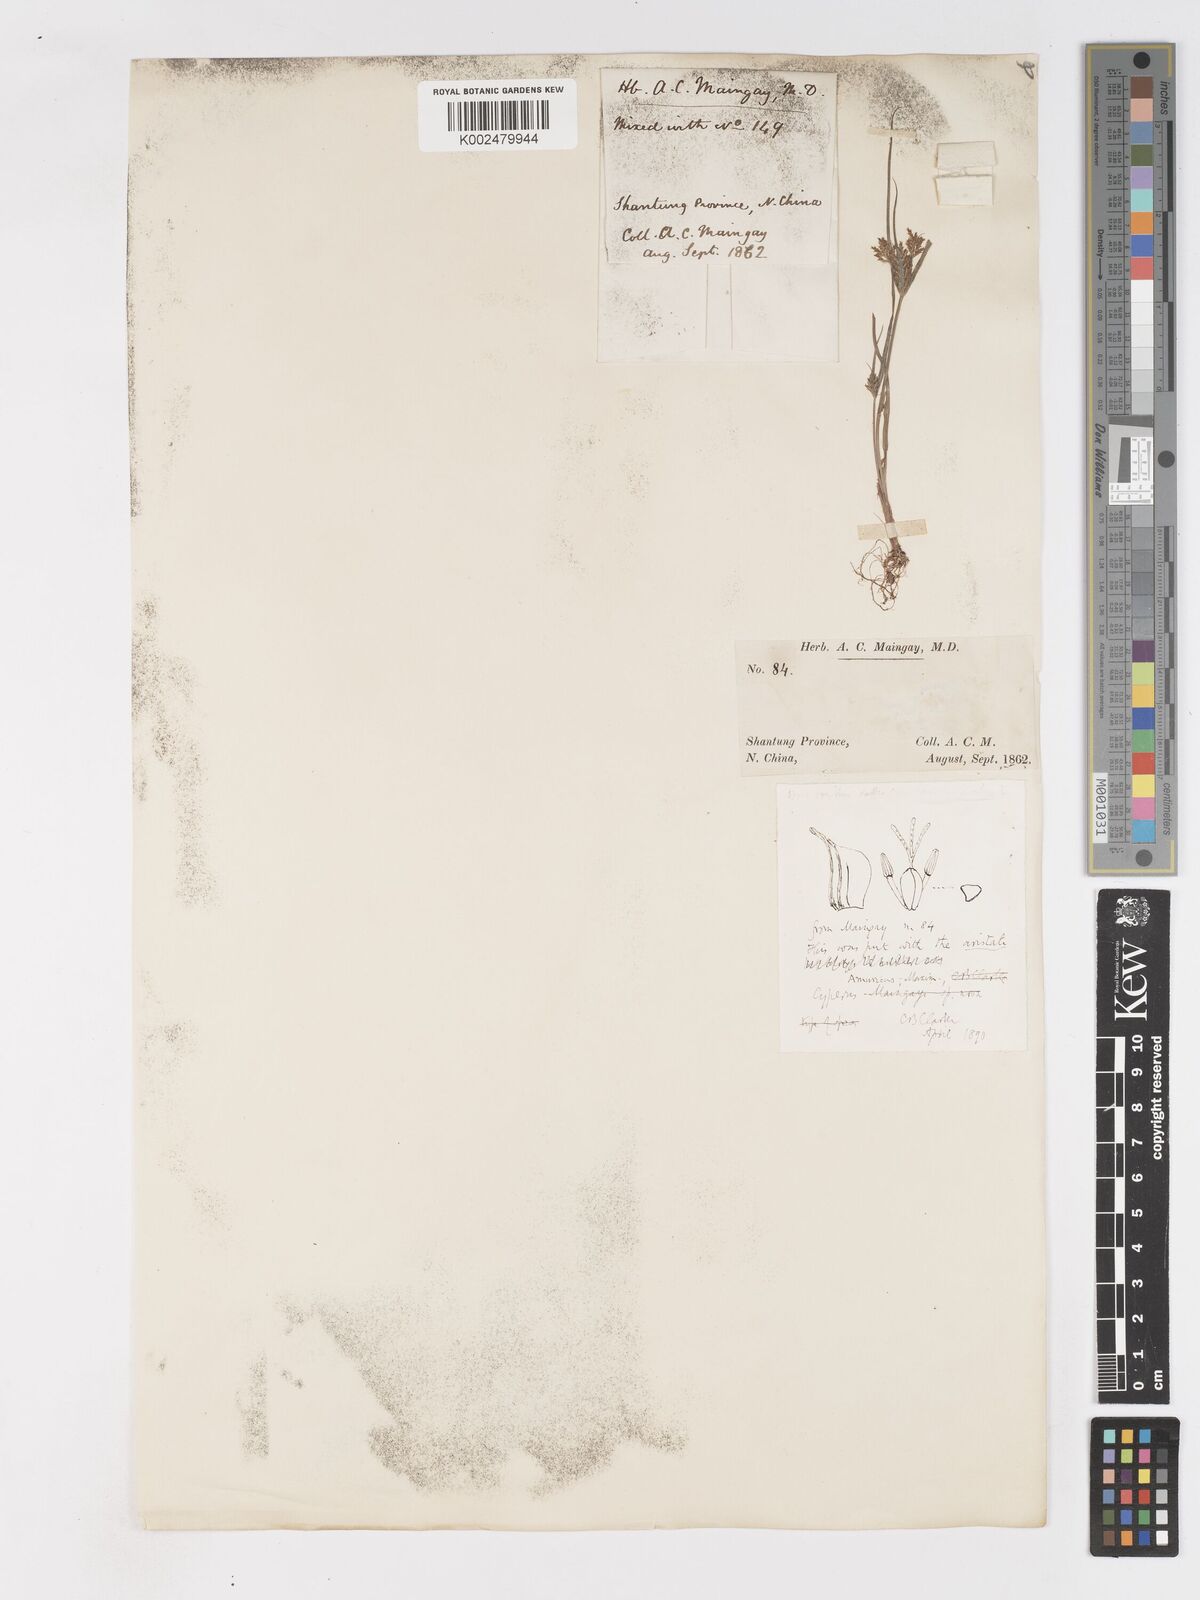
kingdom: Plantae
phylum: Tracheophyta
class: Liliopsida
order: Poales
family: Cyperaceae
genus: Cyperus
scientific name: Cyperus amuricus
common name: Asian flatsedge
